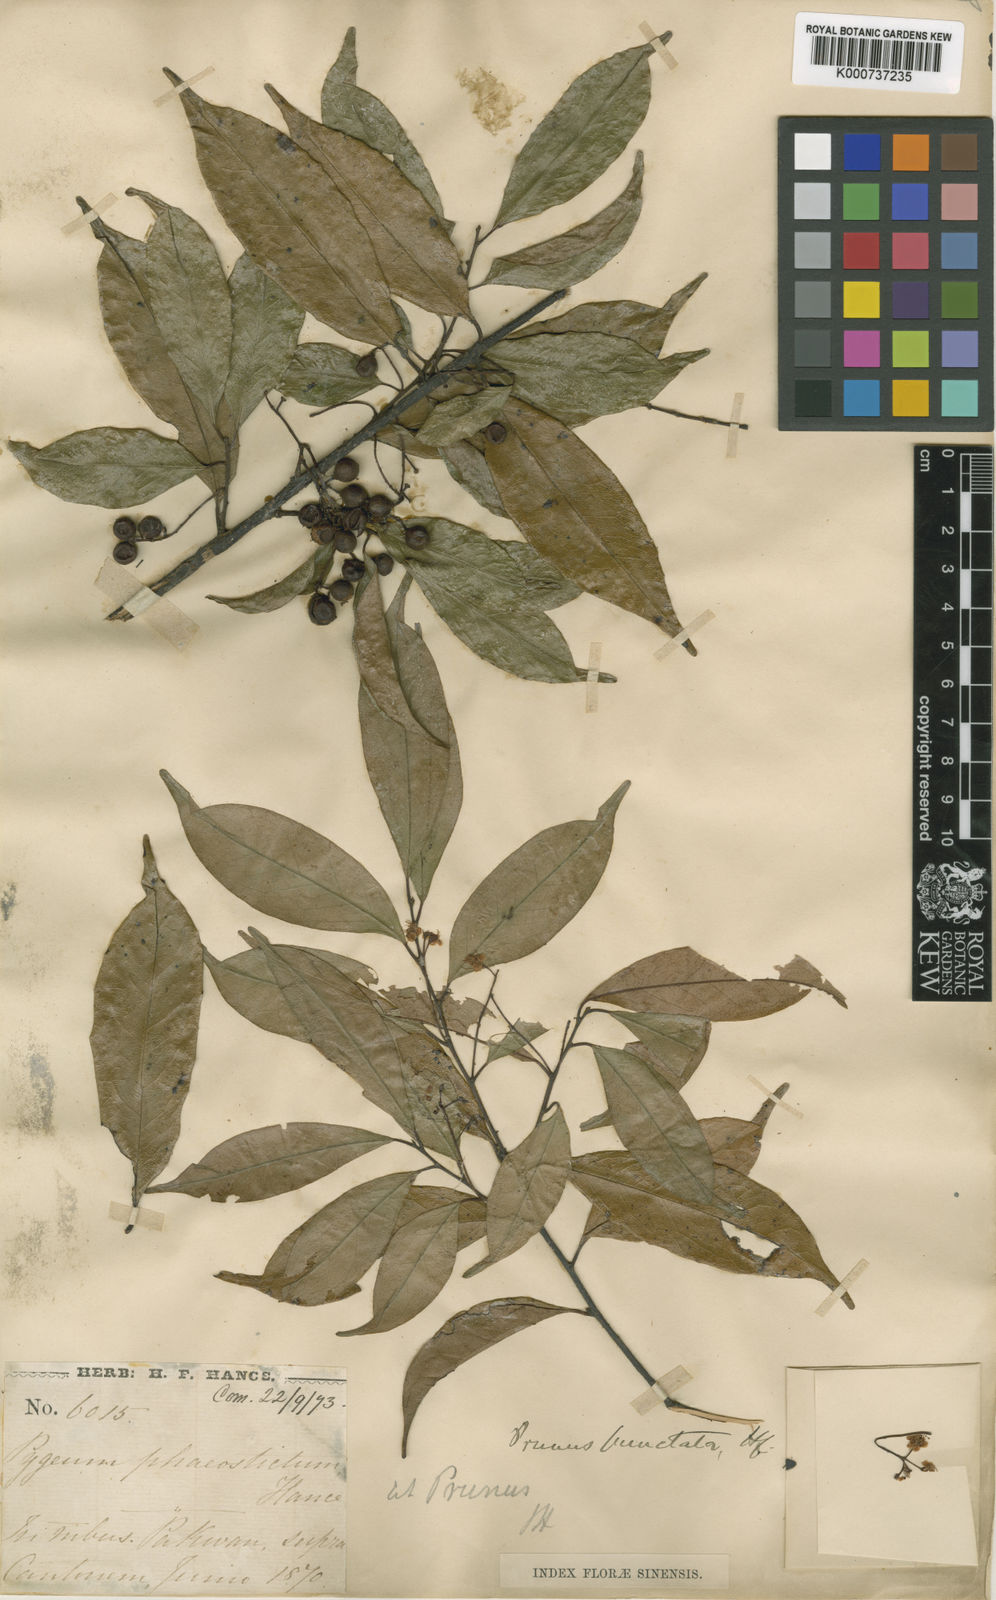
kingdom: Plantae
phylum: Tracheophyta
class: Magnoliopsida
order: Rosales
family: Rosaceae
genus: Prunus
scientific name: Prunus phaeosticta
